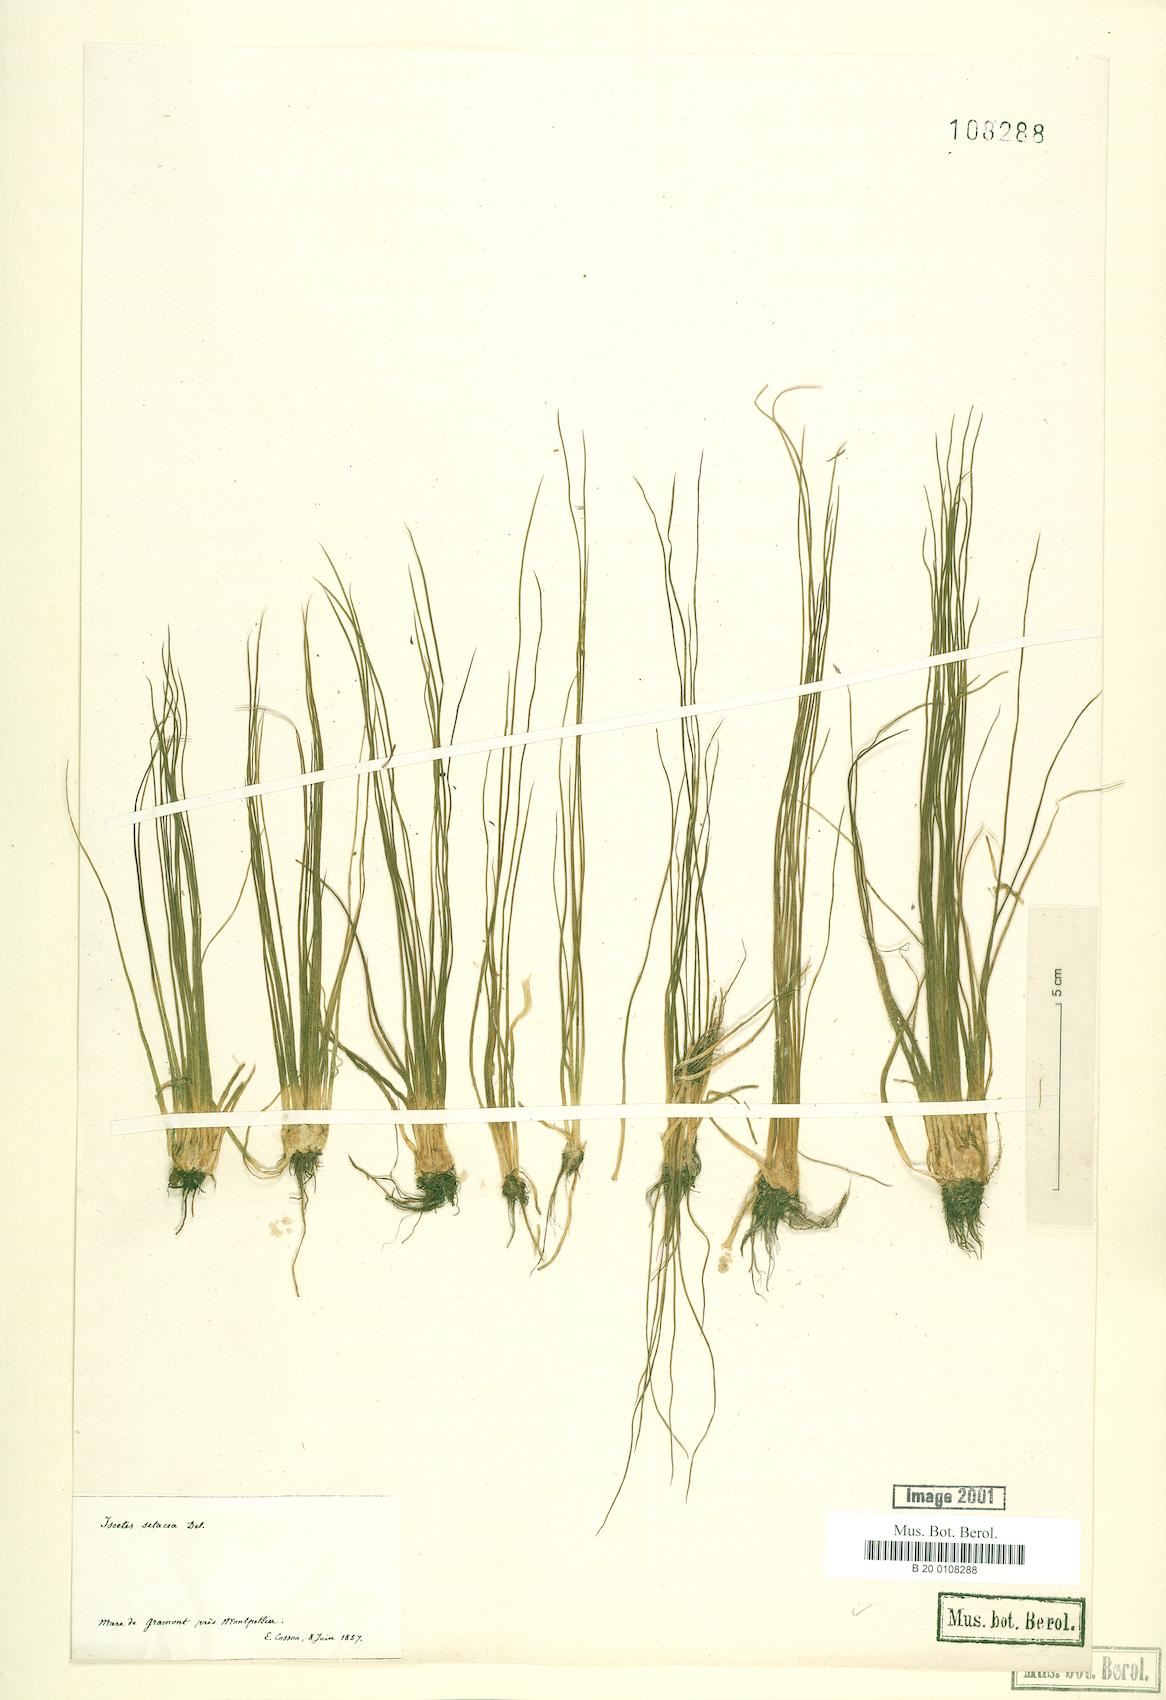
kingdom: Plantae
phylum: Tracheophyta
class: Lycopodiopsida
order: Isoetales
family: Isoetaceae
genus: Isoetes
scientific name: Isoetes lacustris
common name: Common quillwort
